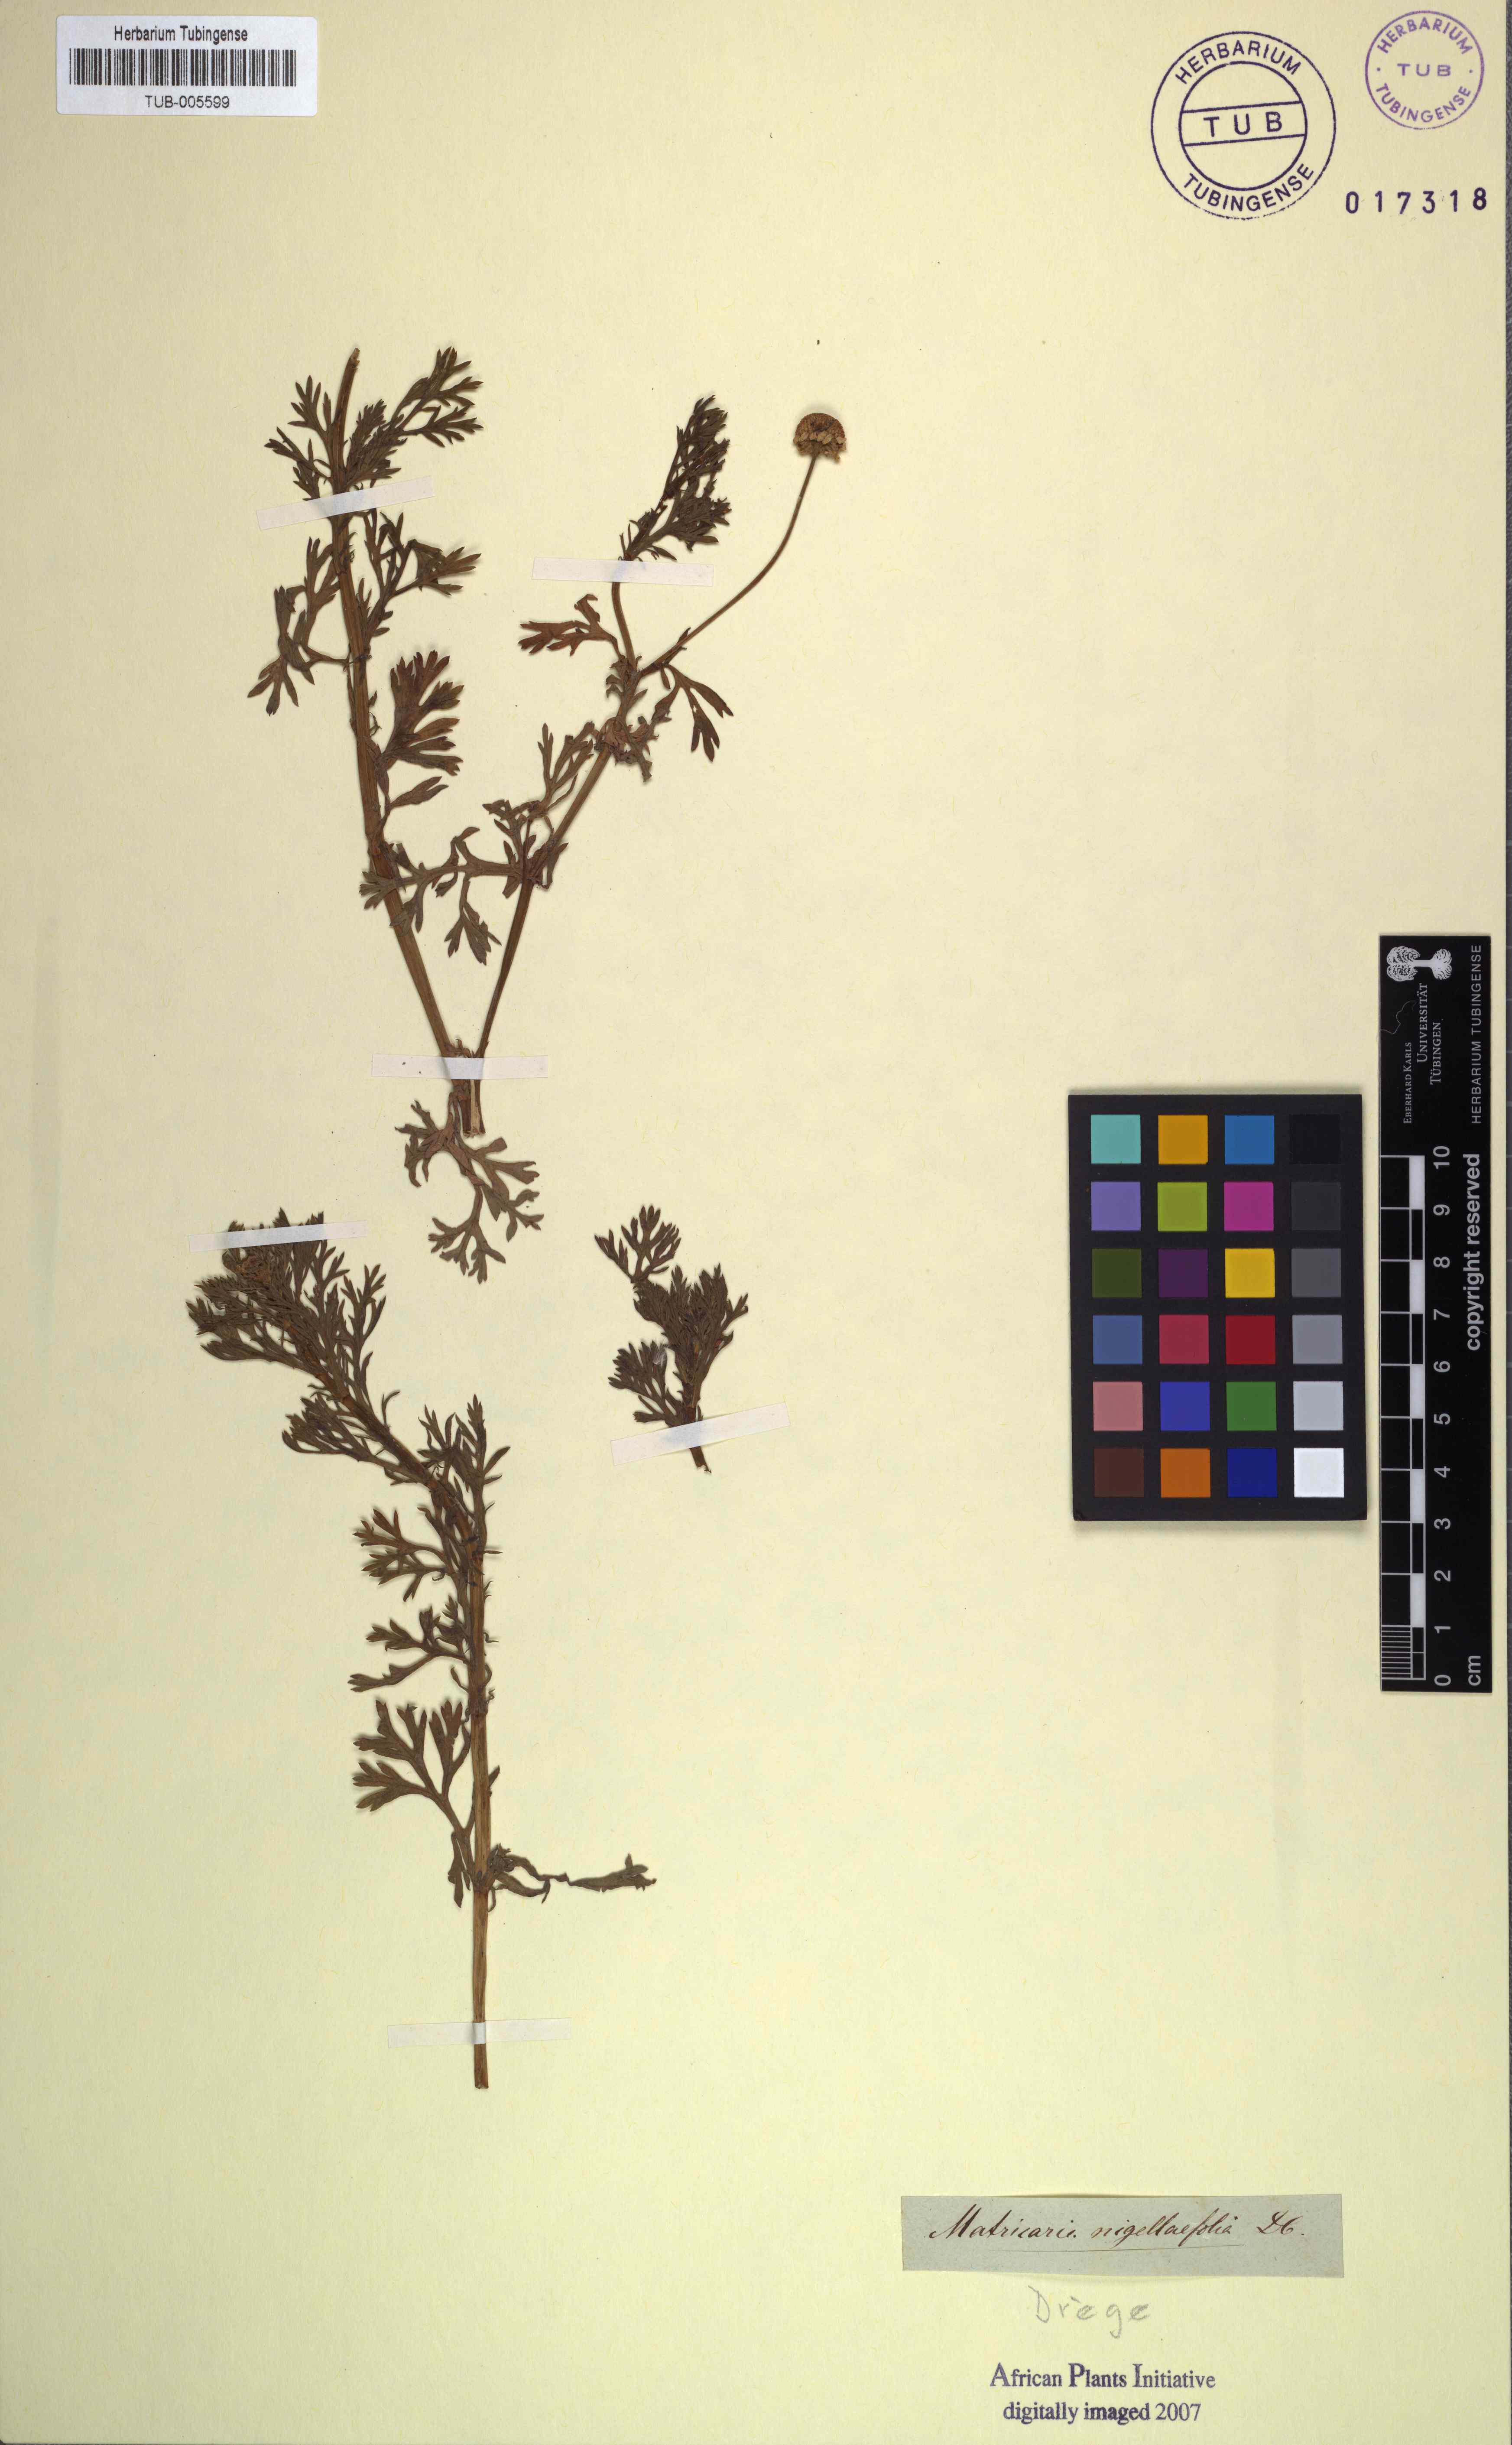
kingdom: Plantae
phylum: Tracheophyta
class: Magnoliopsida
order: Asterales
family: Asteraceae
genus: Cotula
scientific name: Cotula nigellifolia
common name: Staggerweed
